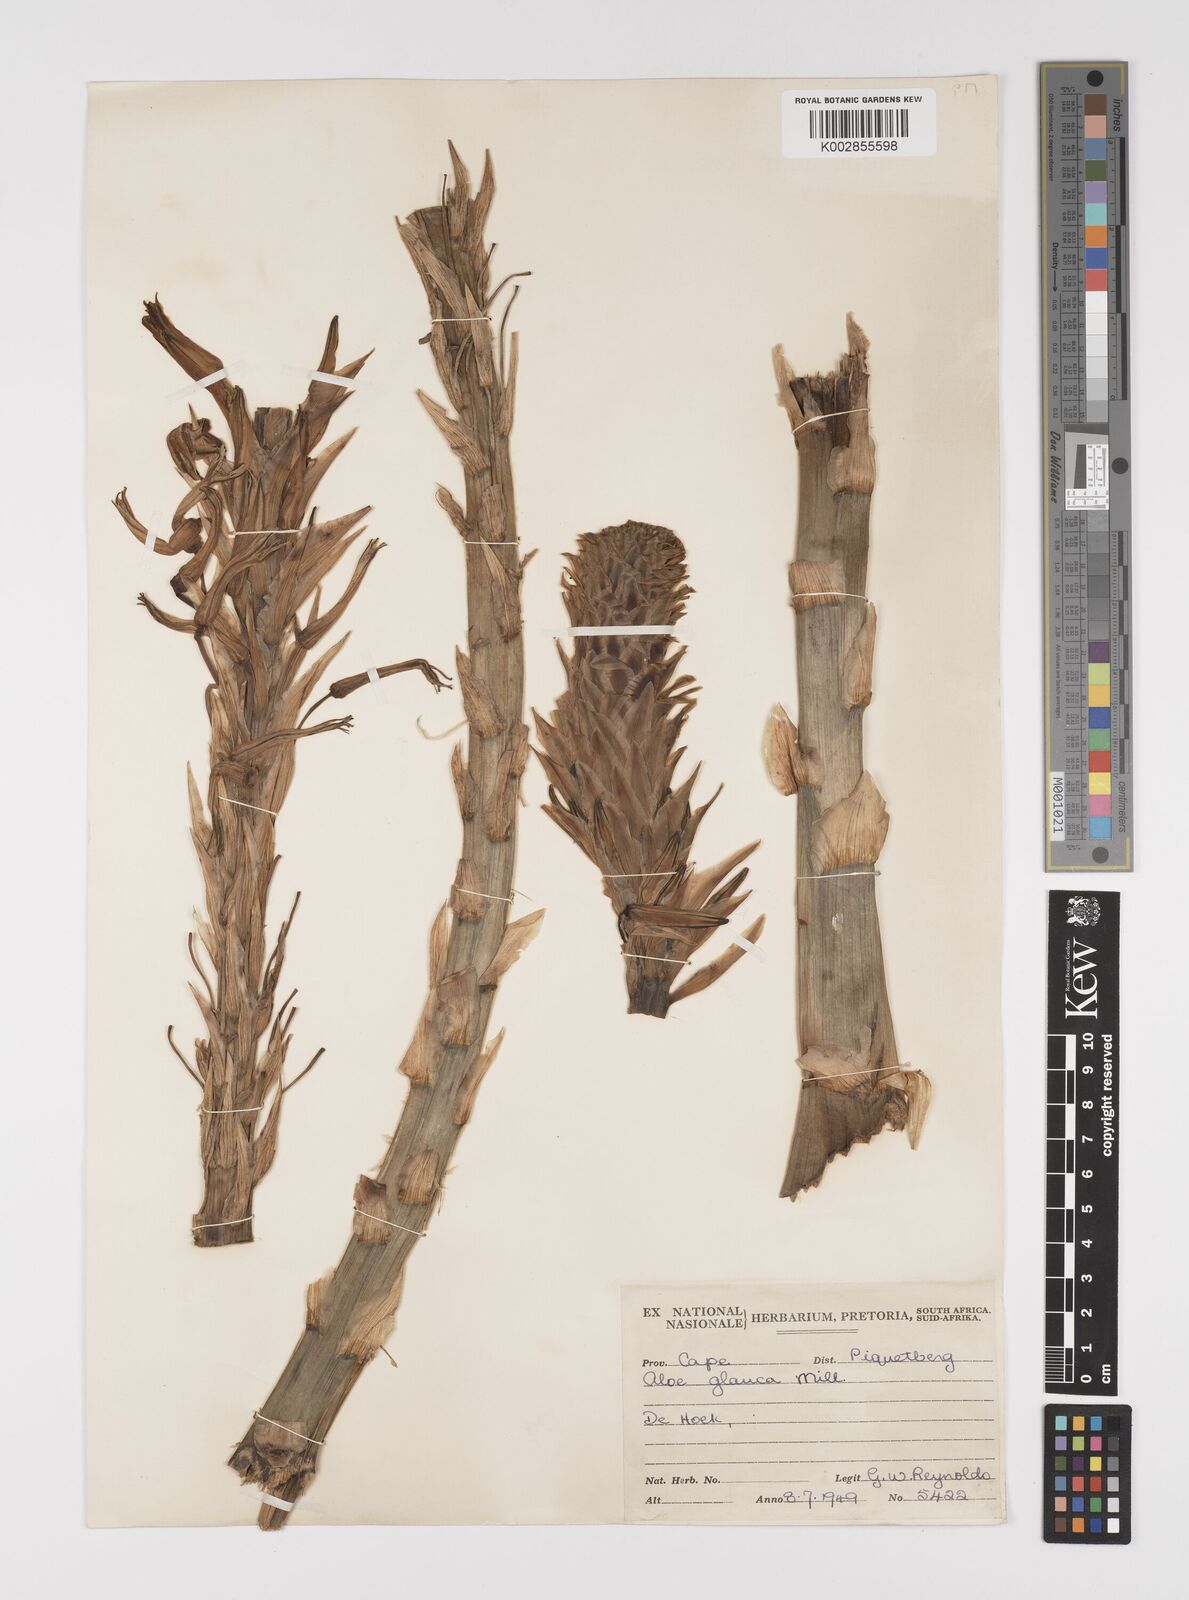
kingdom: Plantae
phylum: Tracheophyta
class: Liliopsida
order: Asparagales
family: Asphodelaceae
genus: Aloe
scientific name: Aloe glauca
